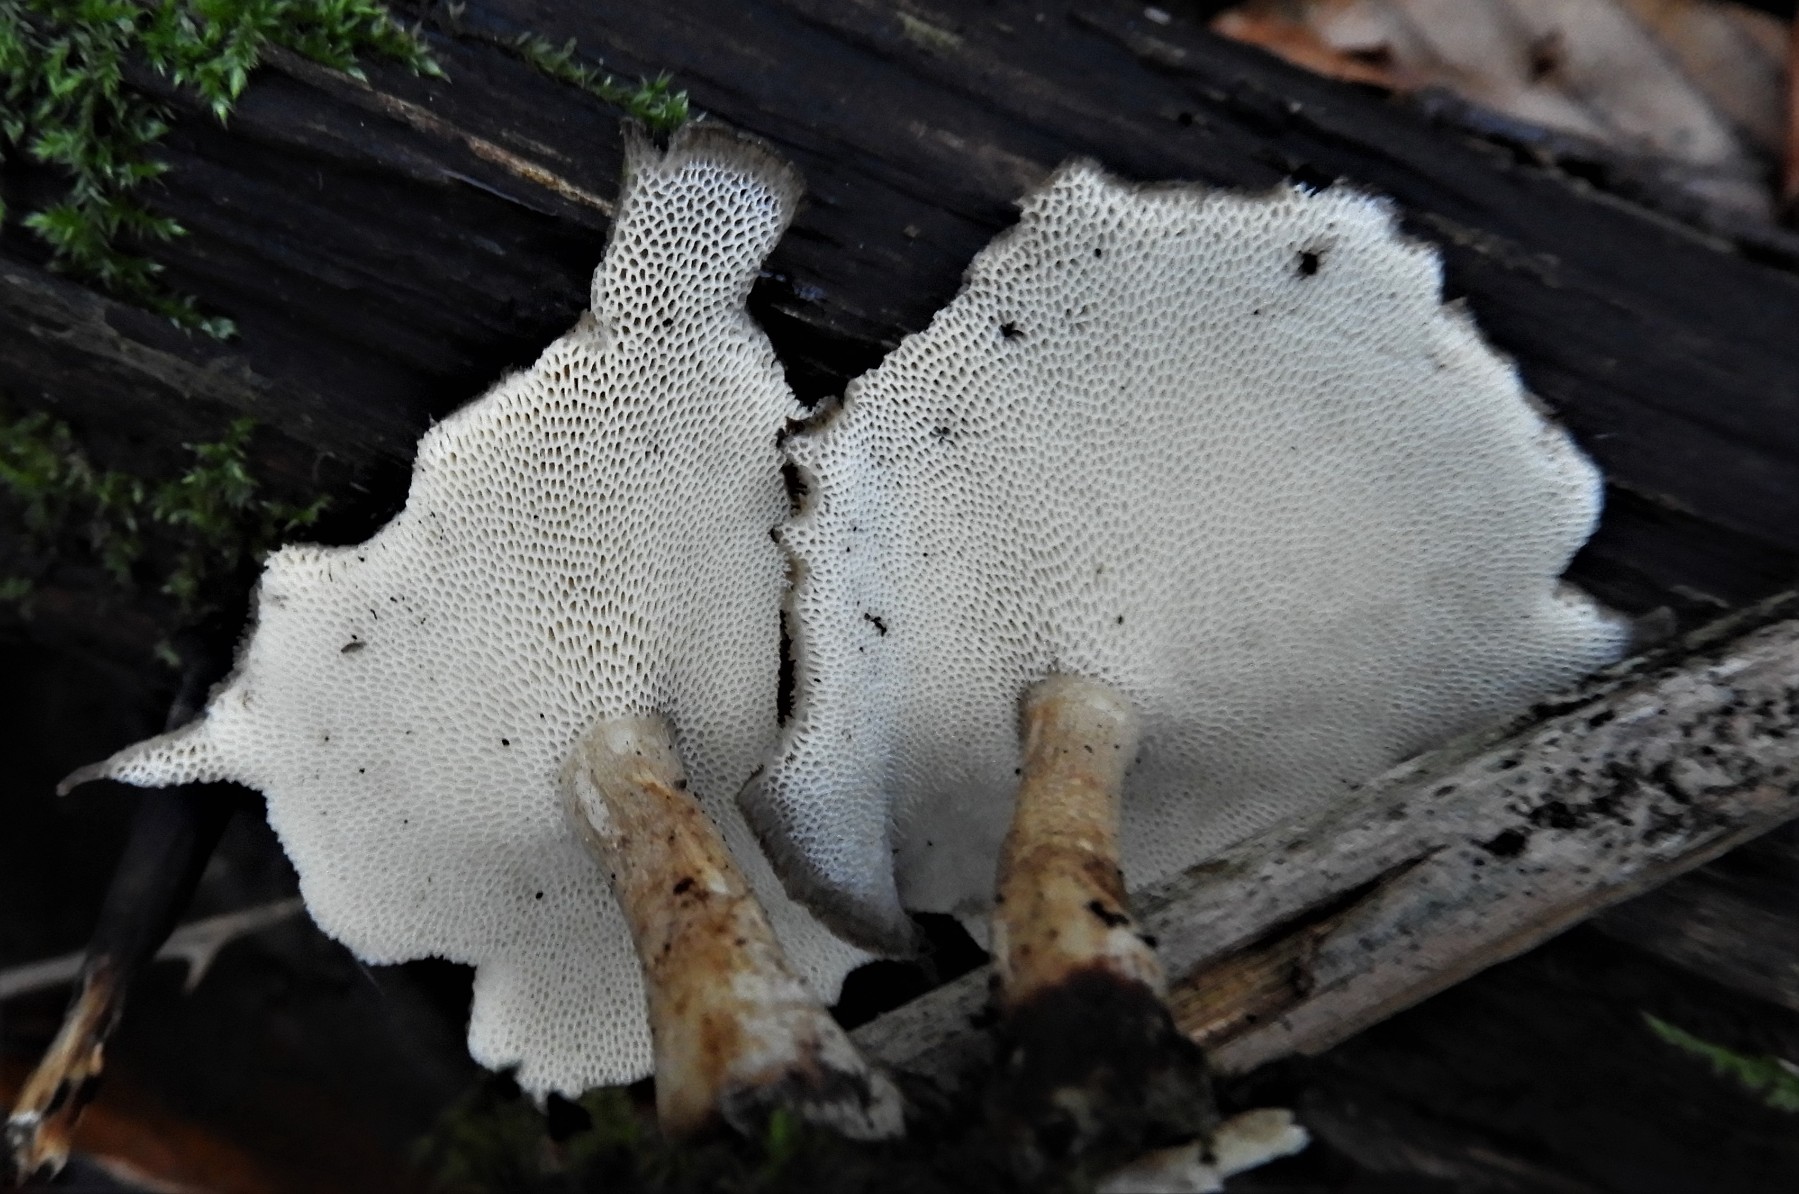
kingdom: Fungi
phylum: Basidiomycota
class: Agaricomycetes
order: Polyporales
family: Polyporaceae
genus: Lentinus
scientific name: Lentinus brumalis
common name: vinter-stilkporesvamp
